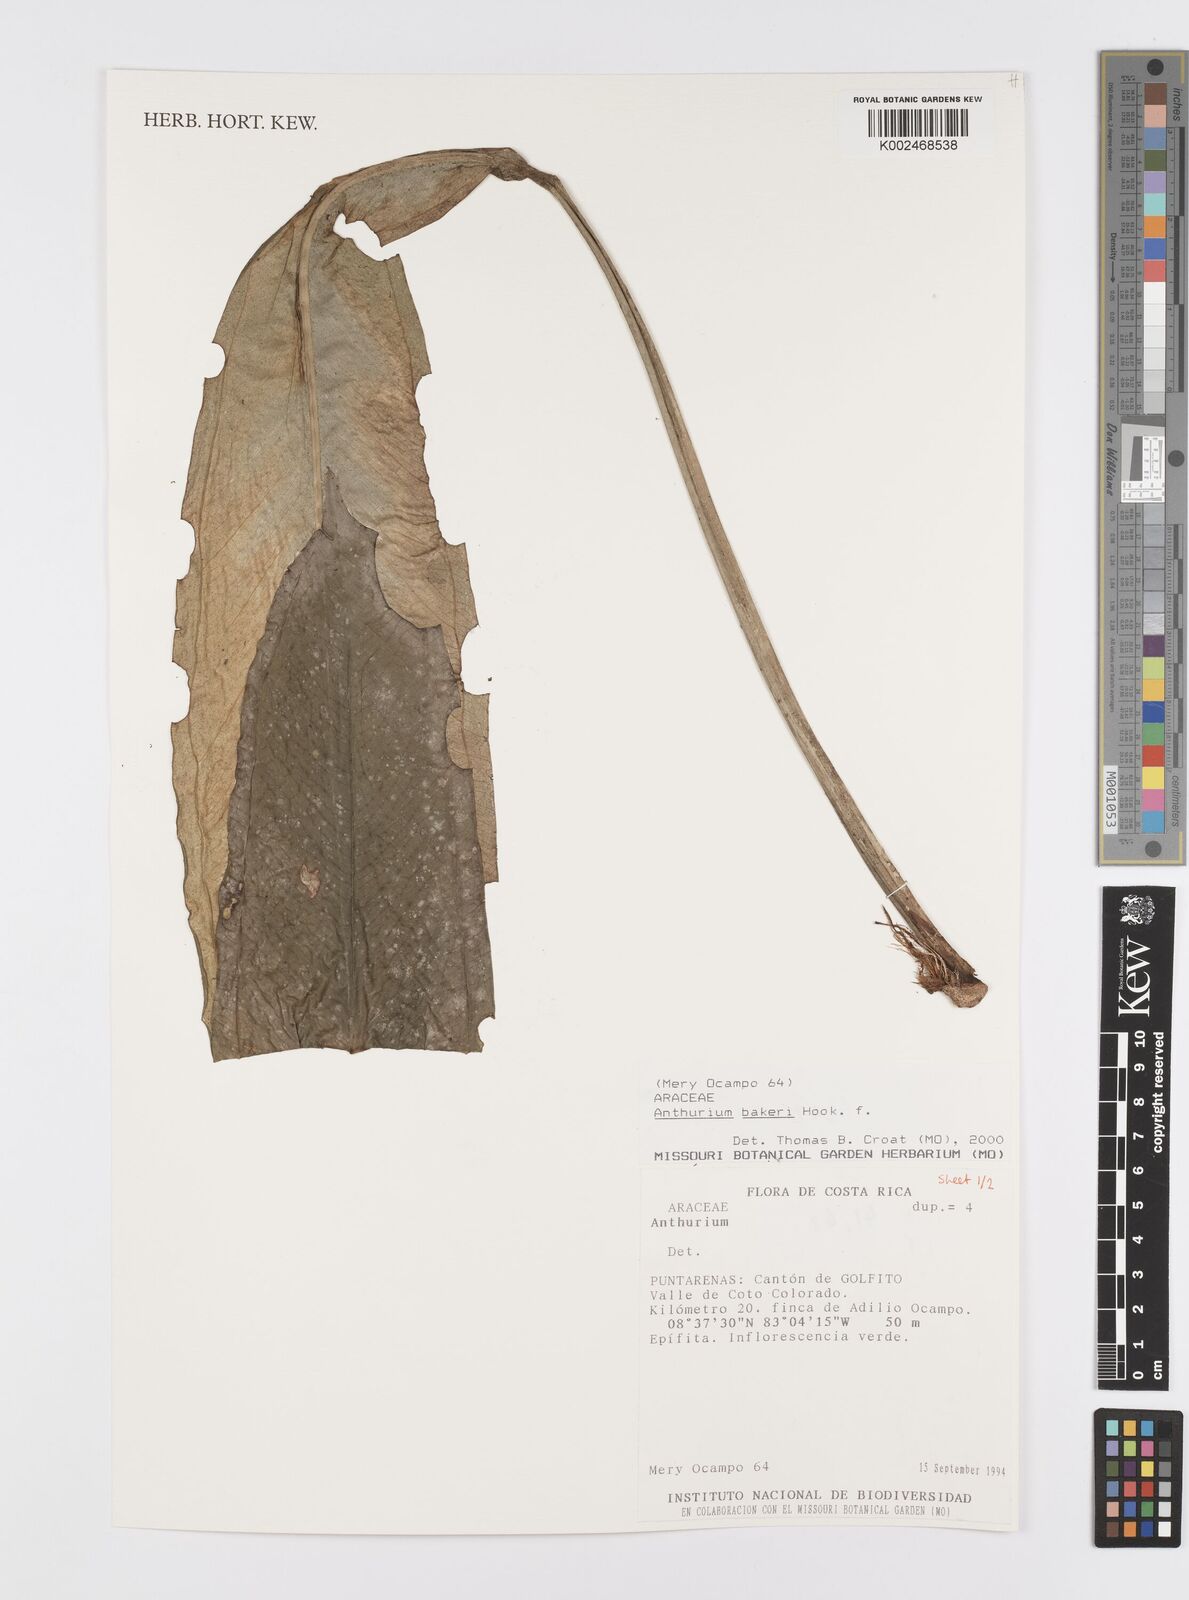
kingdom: Plantae
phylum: Tracheophyta
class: Liliopsida
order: Alismatales
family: Araceae
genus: Anthurium
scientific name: Anthurium bakeri
